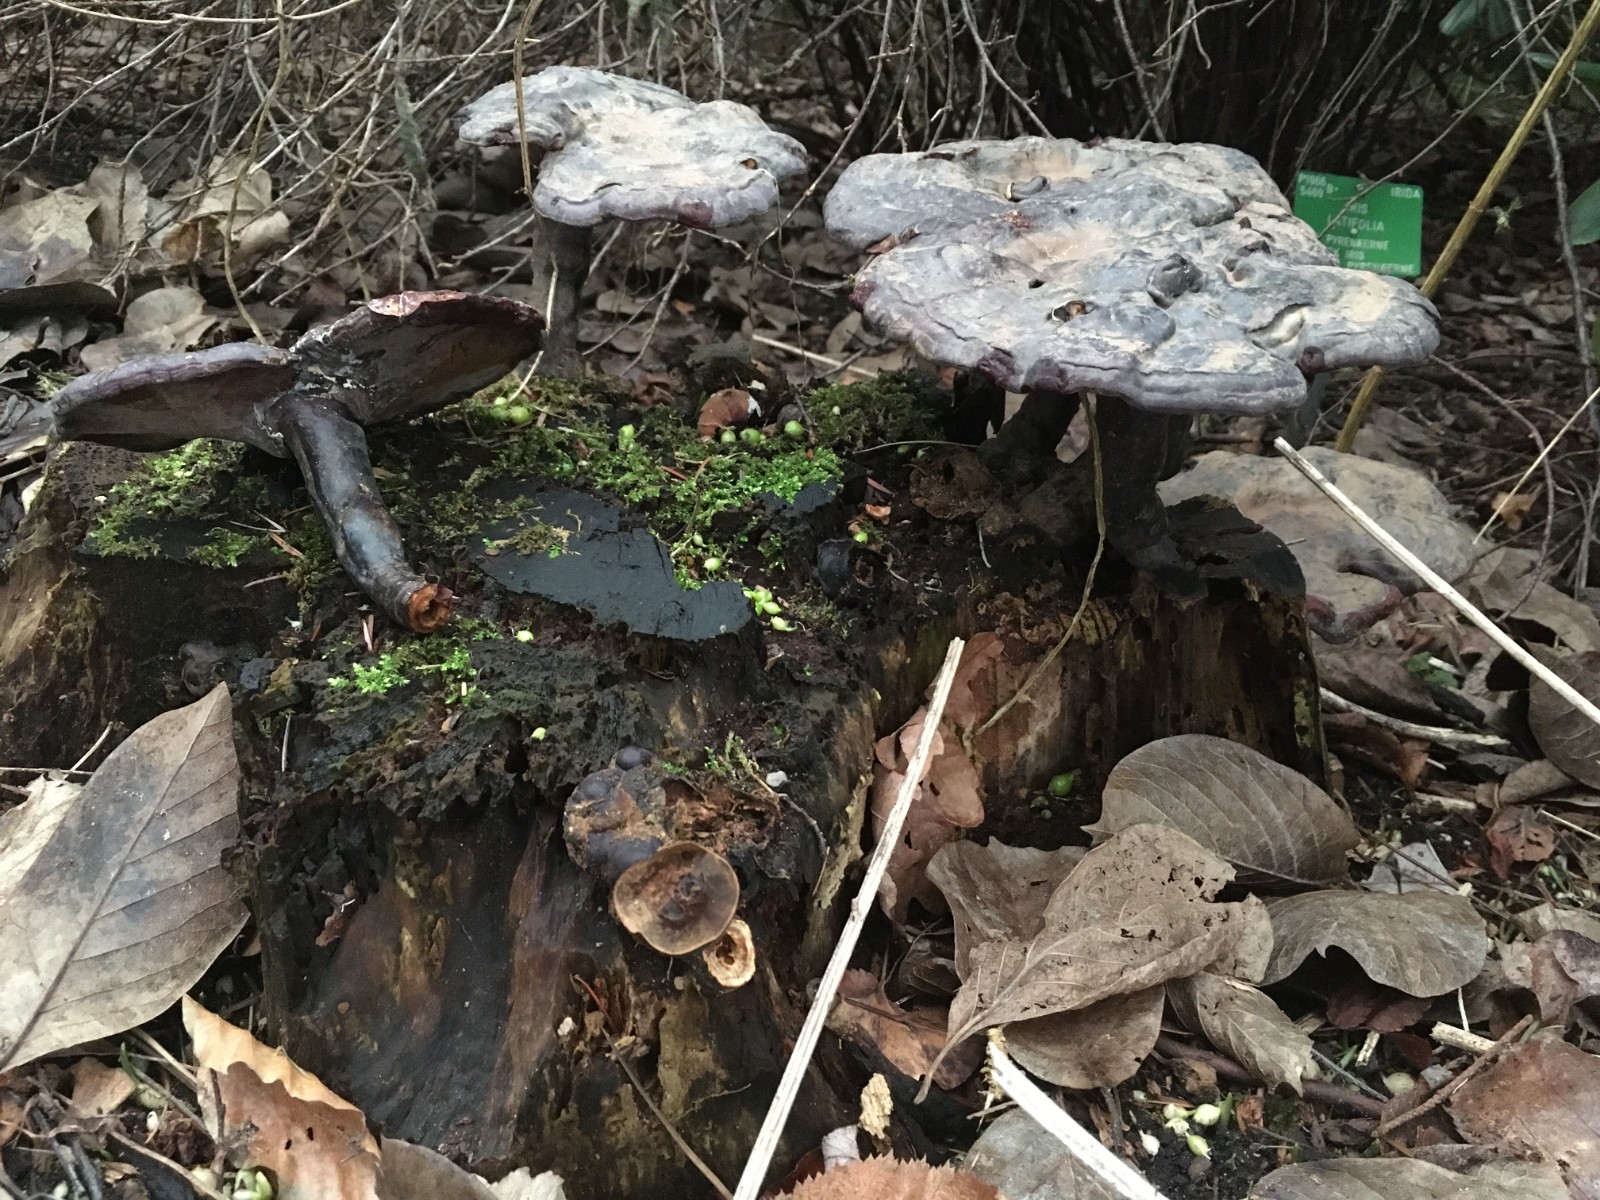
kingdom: Fungi
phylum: Basidiomycota
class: Agaricomycetes
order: Polyporales
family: Polyporaceae
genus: Ganoderma
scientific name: Ganoderma lucidum
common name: skinnende lakporesvamp
